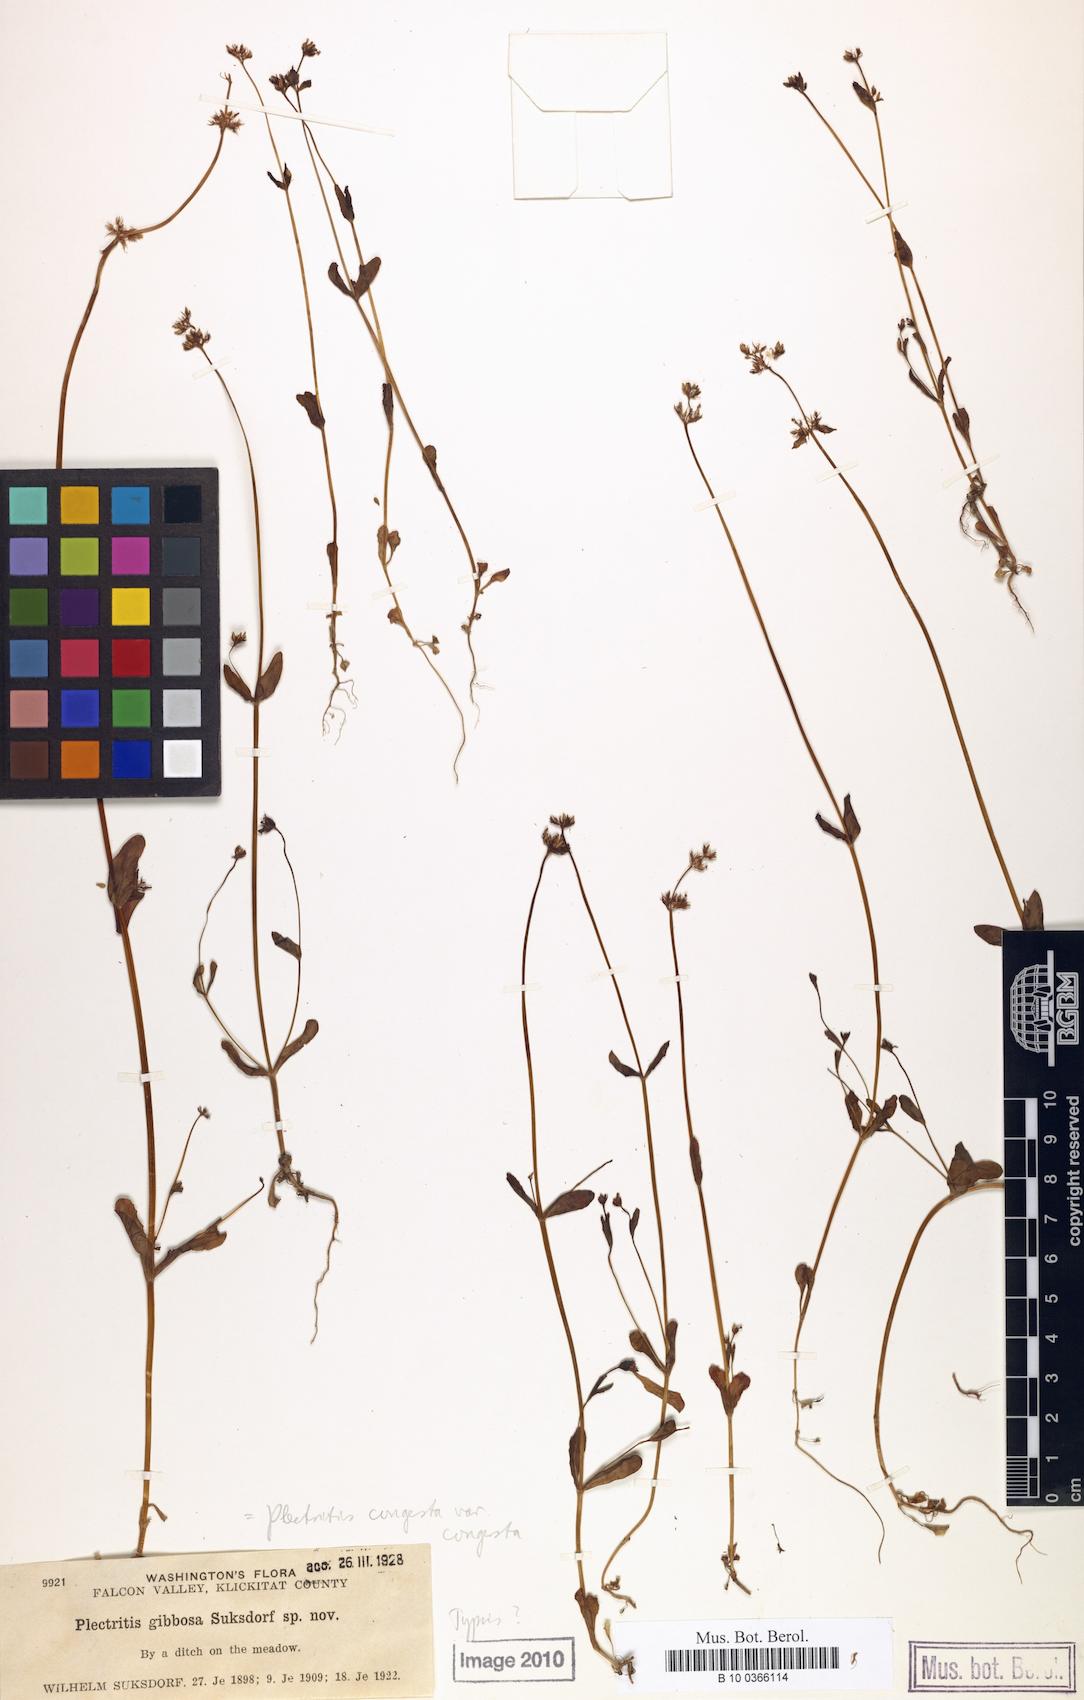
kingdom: Plantae
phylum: Tracheophyta
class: Magnoliopsida
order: Dipsacales
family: Caprifoliaceae
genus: Plectritis
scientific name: Plectritis congesta
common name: Pink plectritis
